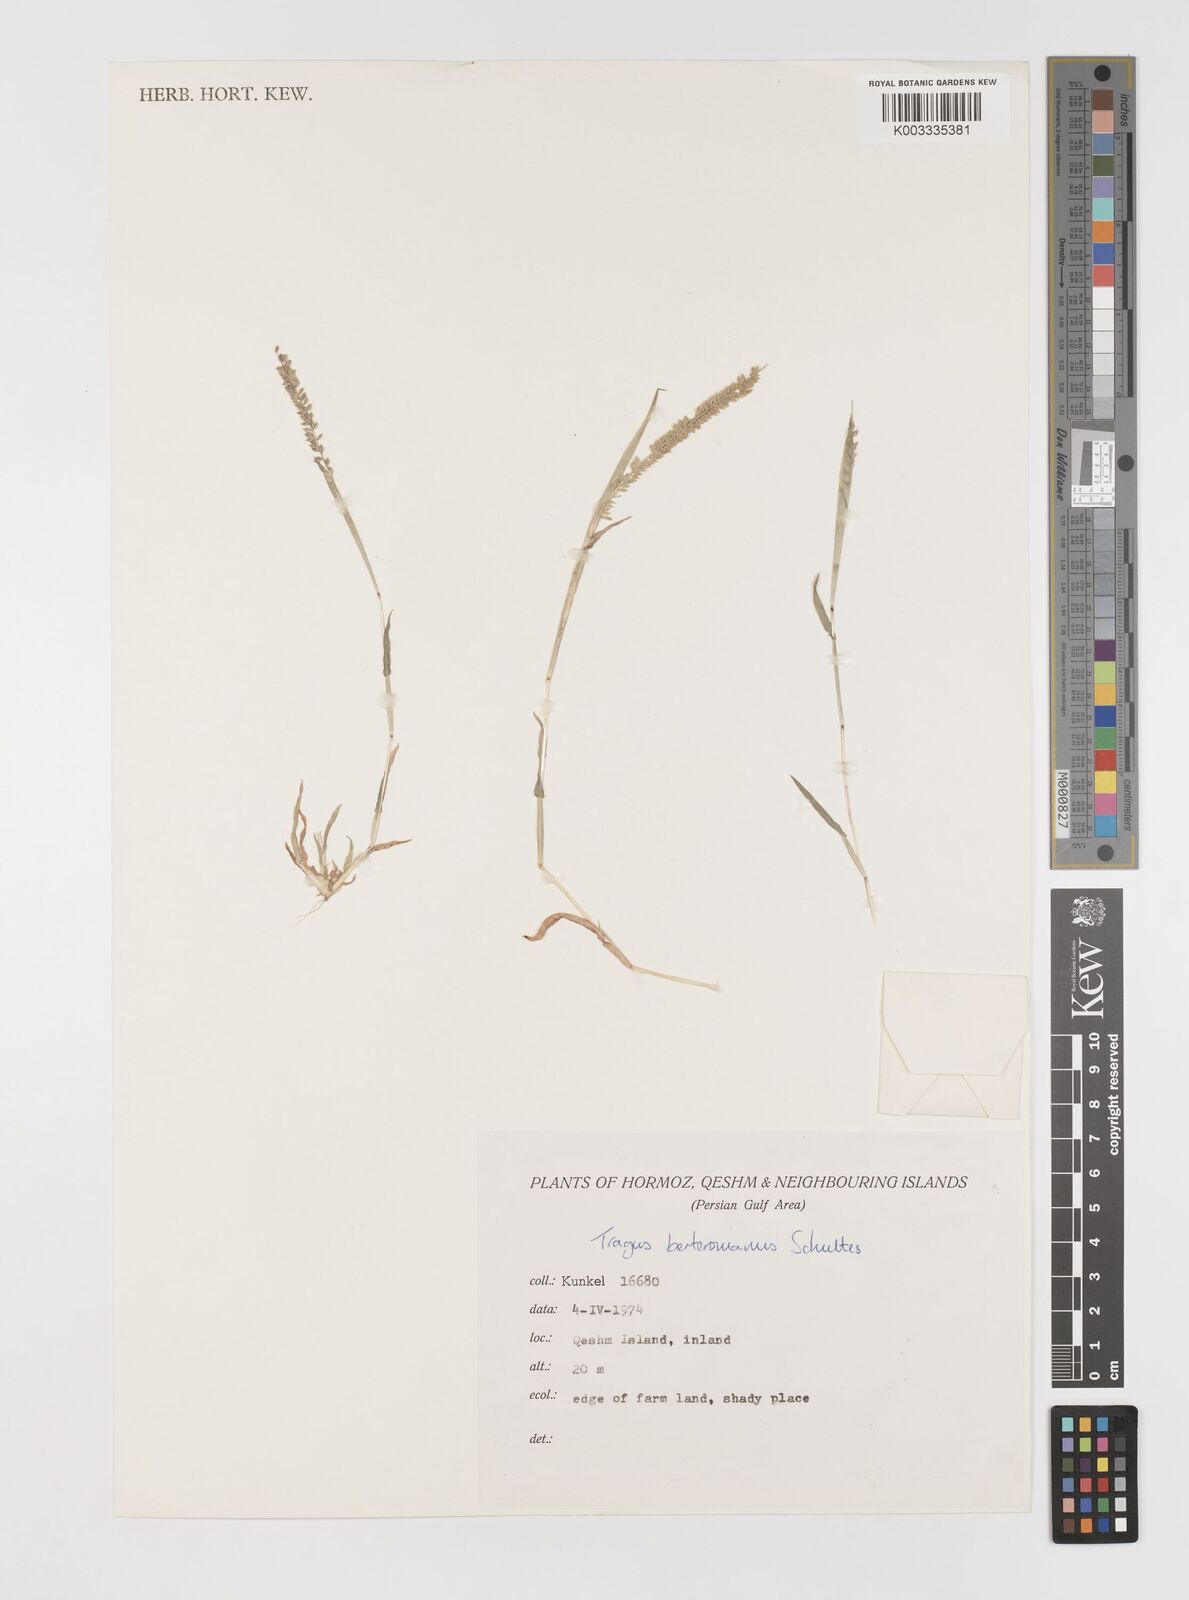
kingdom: Plantae
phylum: Tracheophyta
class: Liliopsida
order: Poales
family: Poaceae
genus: Tragus
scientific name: Tragus berteronianus
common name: African bur-grass
